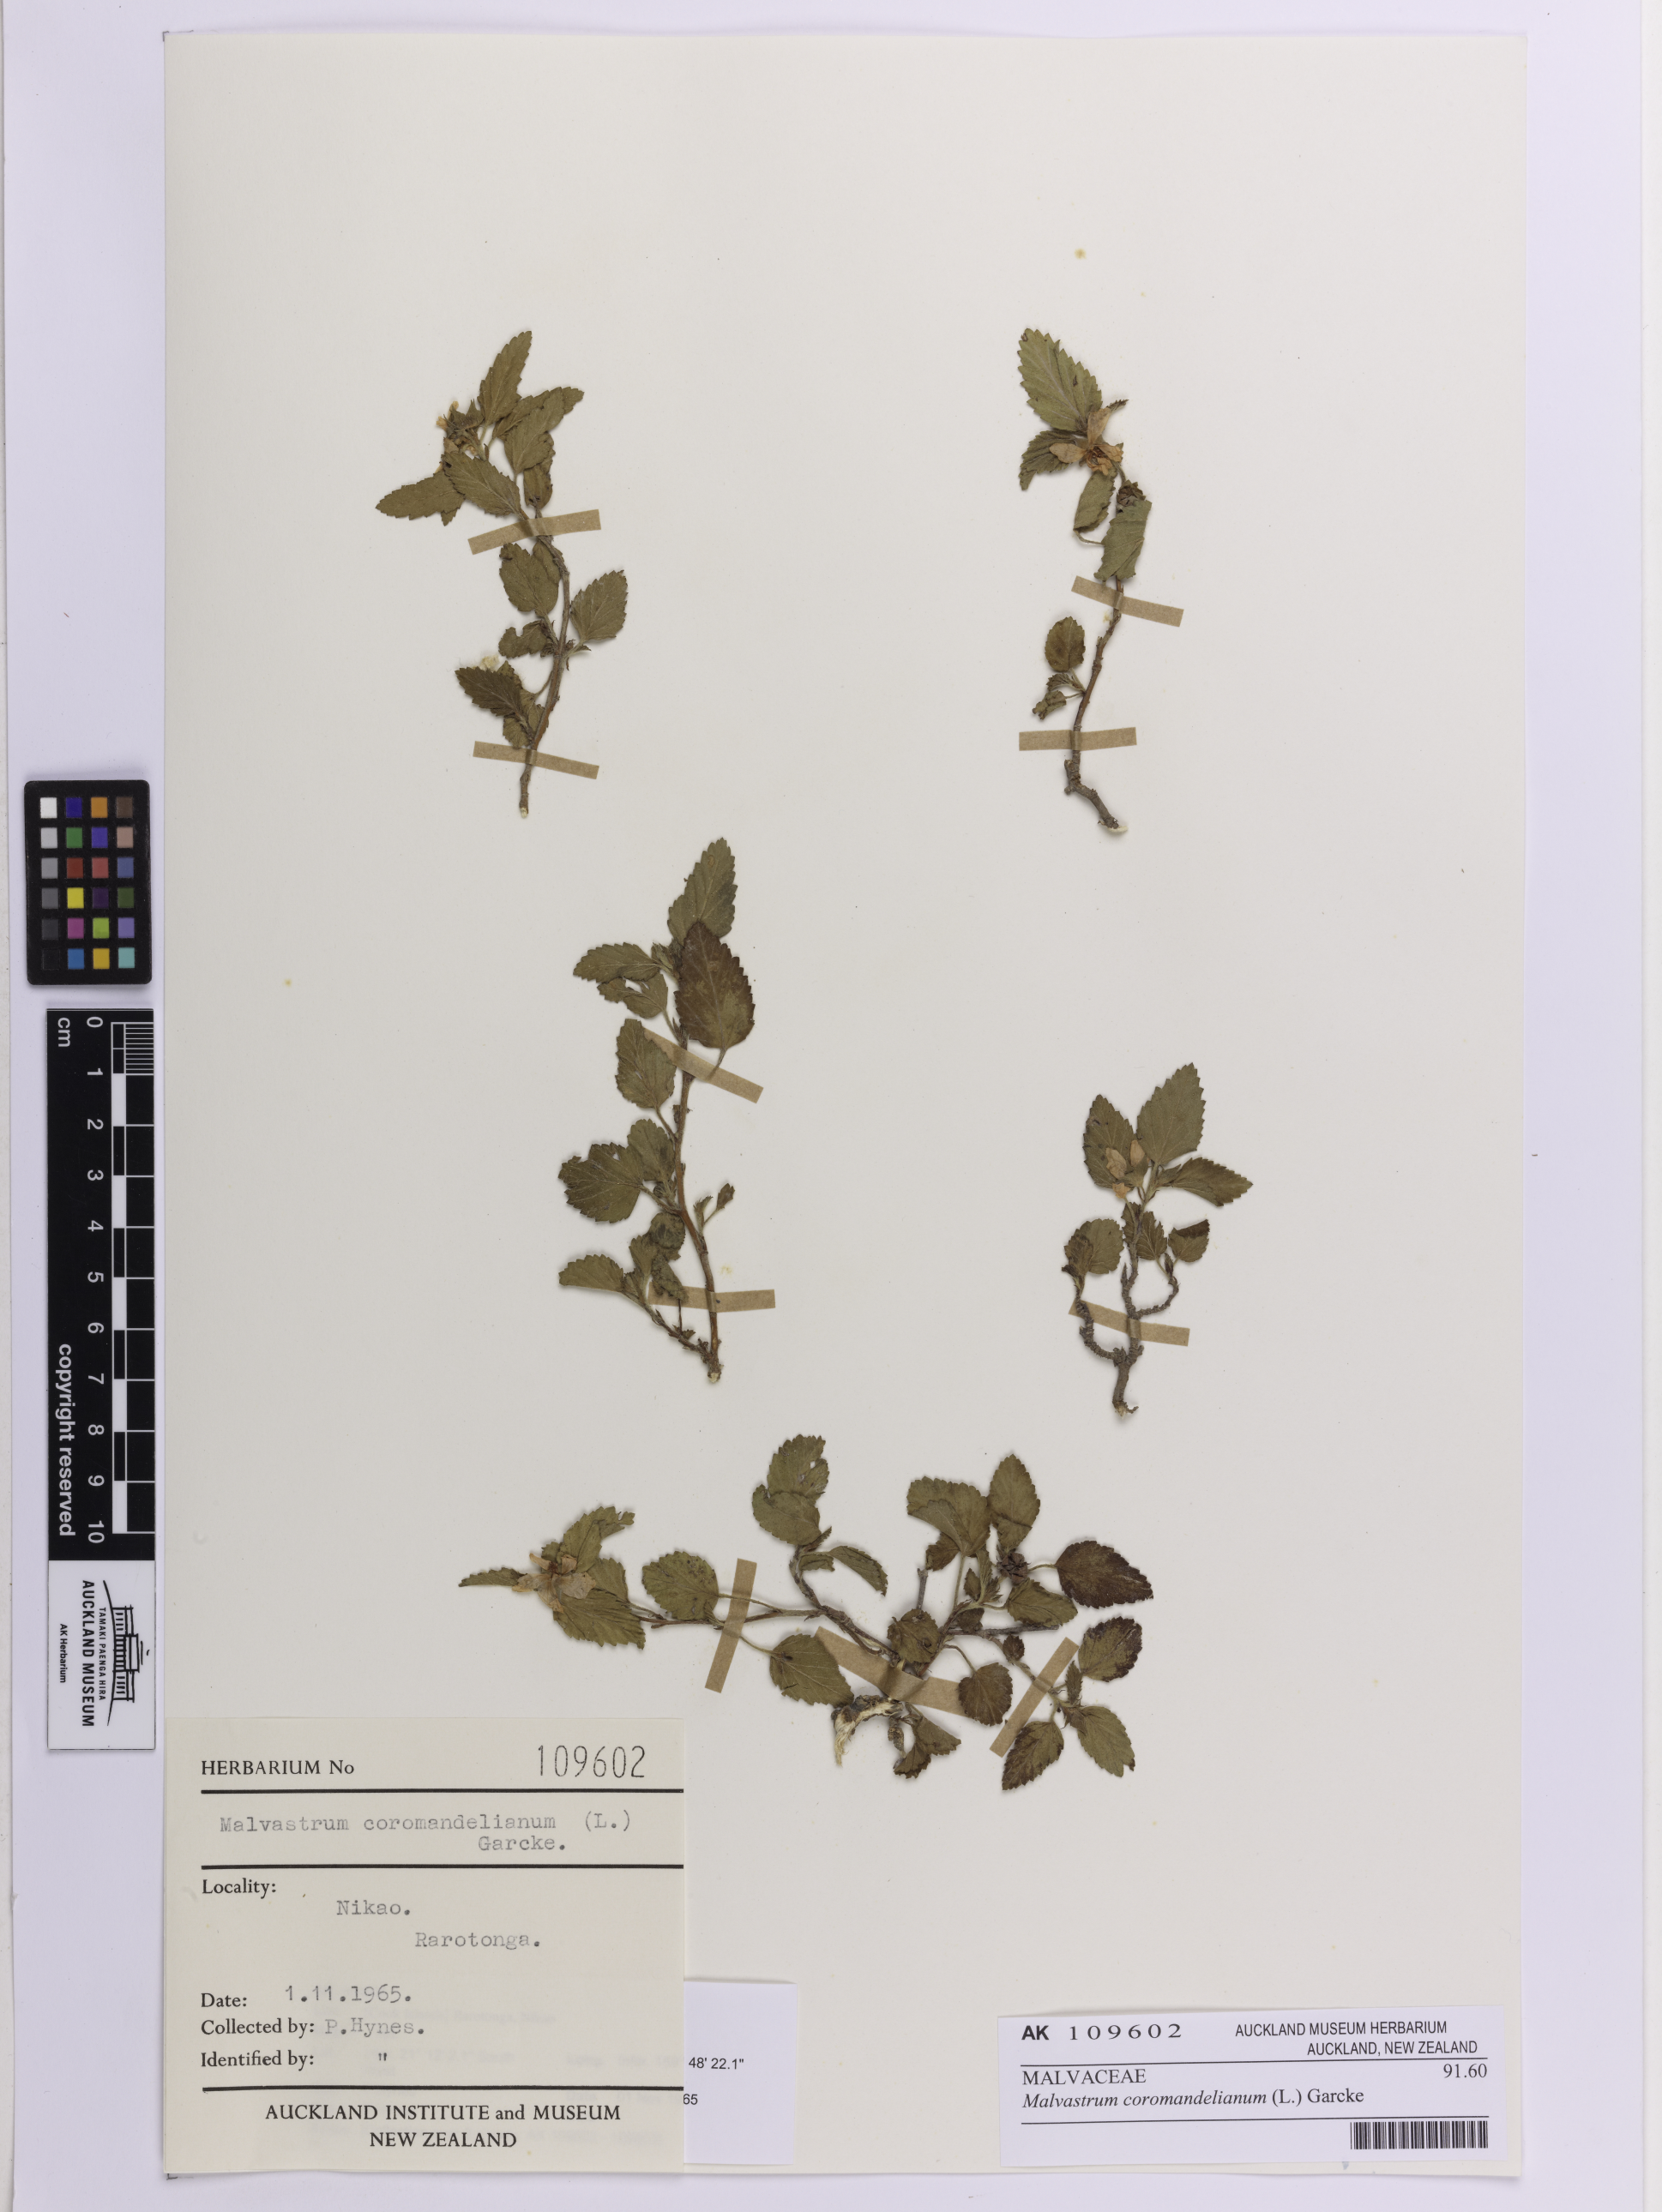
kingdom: Plantae
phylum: Tracheophyta
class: Magnoliopsida
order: Malvales
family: Malvaceae
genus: Malvastrum
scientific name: Malvastrum coromandelianum
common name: Threelobe false mallow
